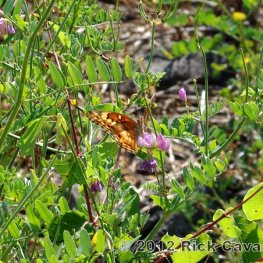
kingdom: Animalia
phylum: Arthropoda
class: Insecta
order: Lepidoptera
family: Nymphalidae
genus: Euptoieta
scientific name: Euptoieta claudia
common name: Variegated Fritillary
